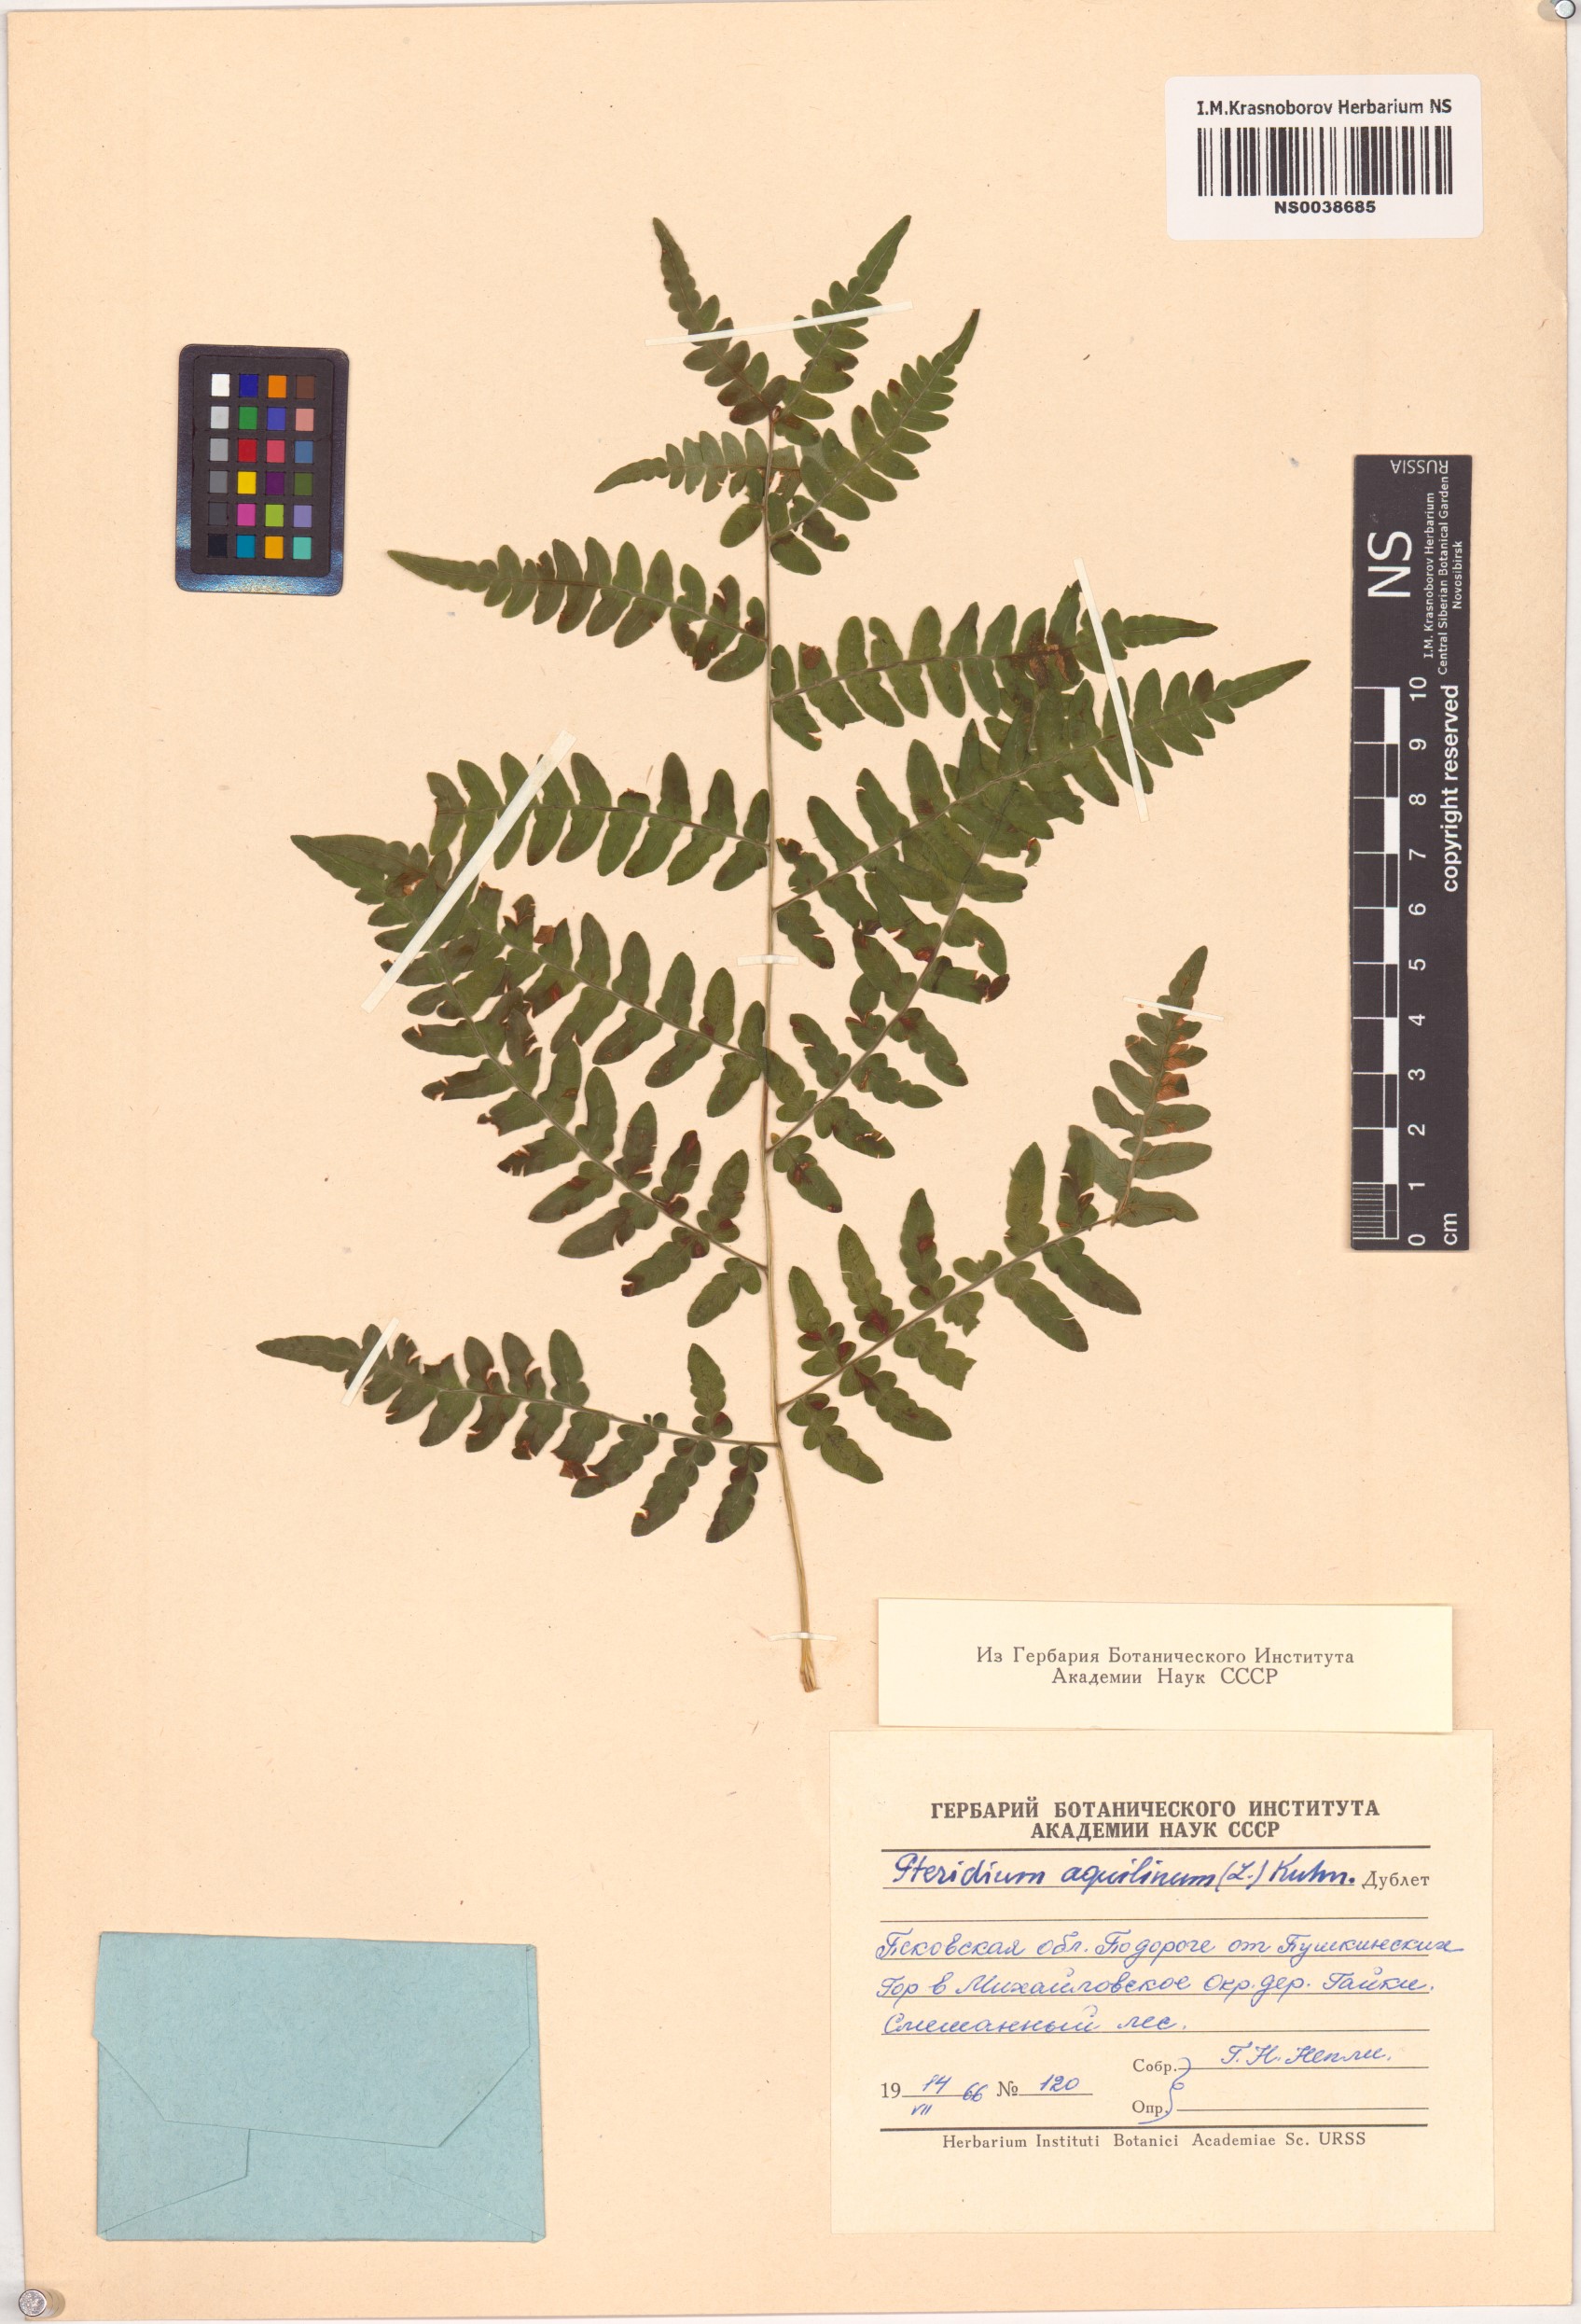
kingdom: Plantae
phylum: Tracheophyta
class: Polypodiopsida
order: Polypodiales
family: Dennstaedtiaceae
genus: Pteridium
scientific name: Pteridium aquilinum
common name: Bracken
